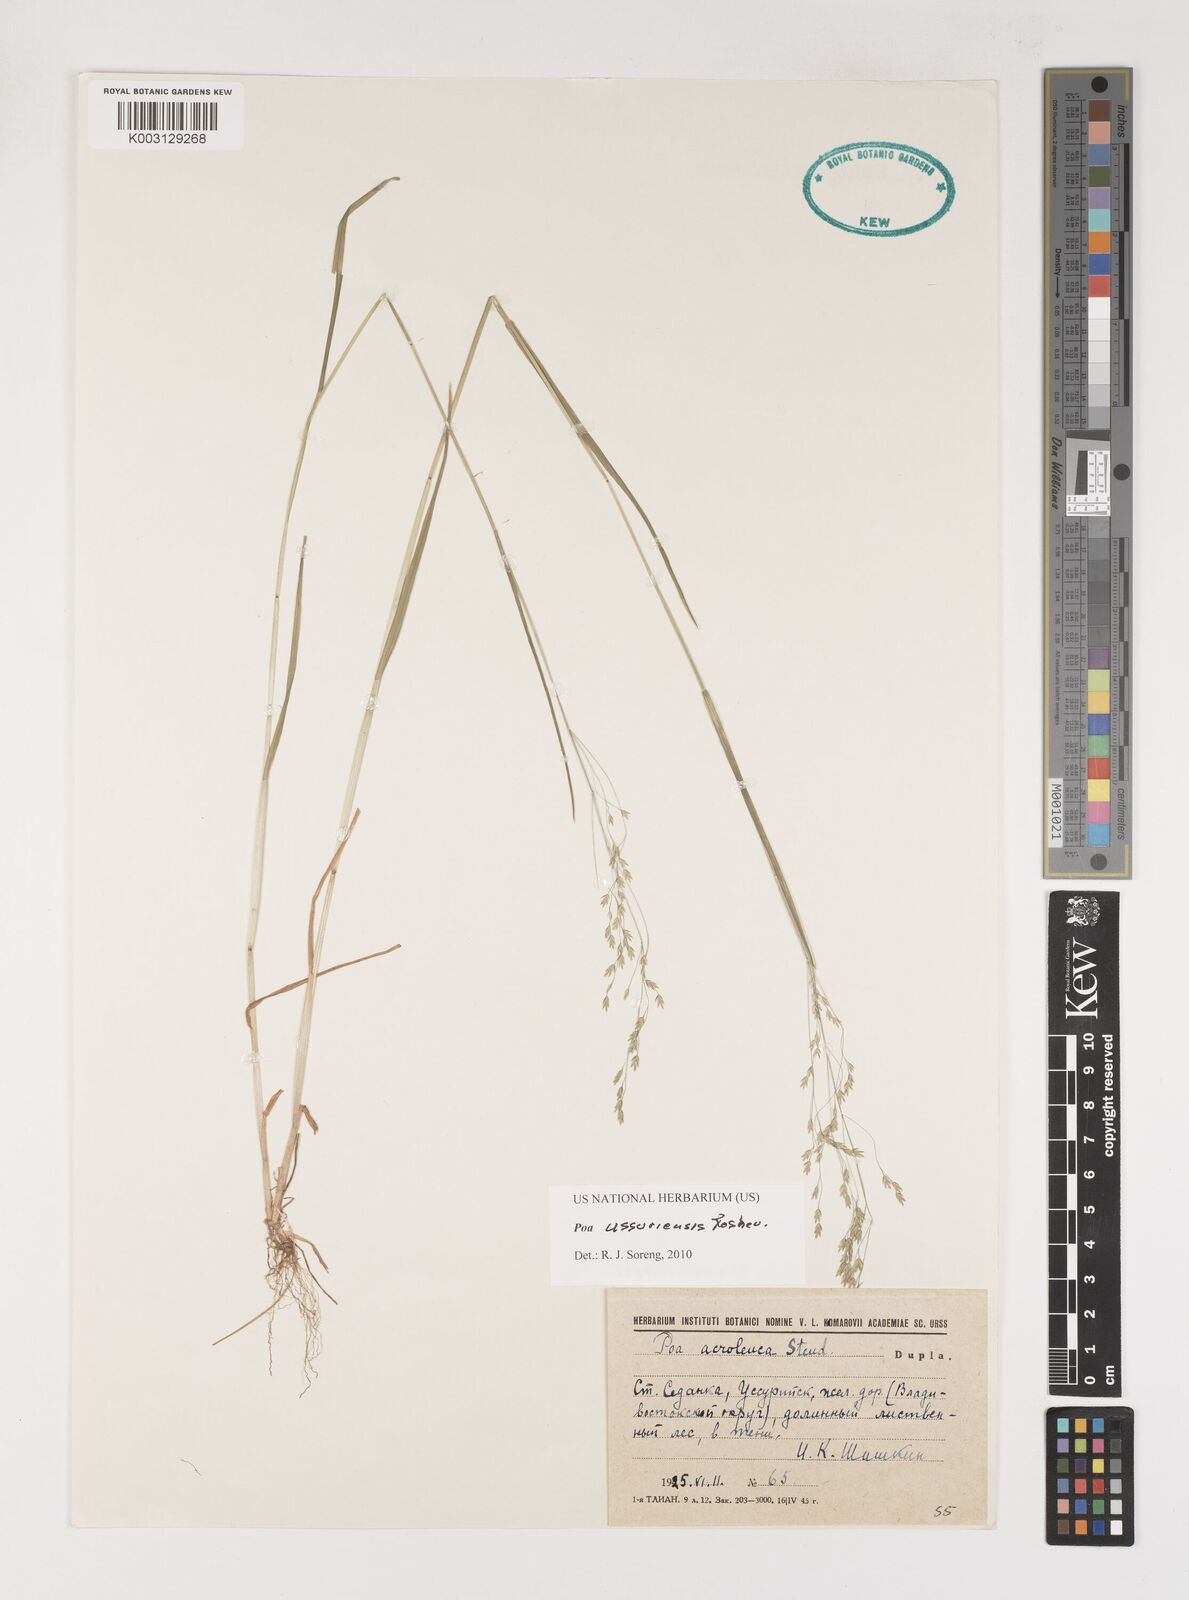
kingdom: Plantae
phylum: Tracheophyta
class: Liliopsida
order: Poales
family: Poaceae
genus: Poa
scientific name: Poa ussuriensis
